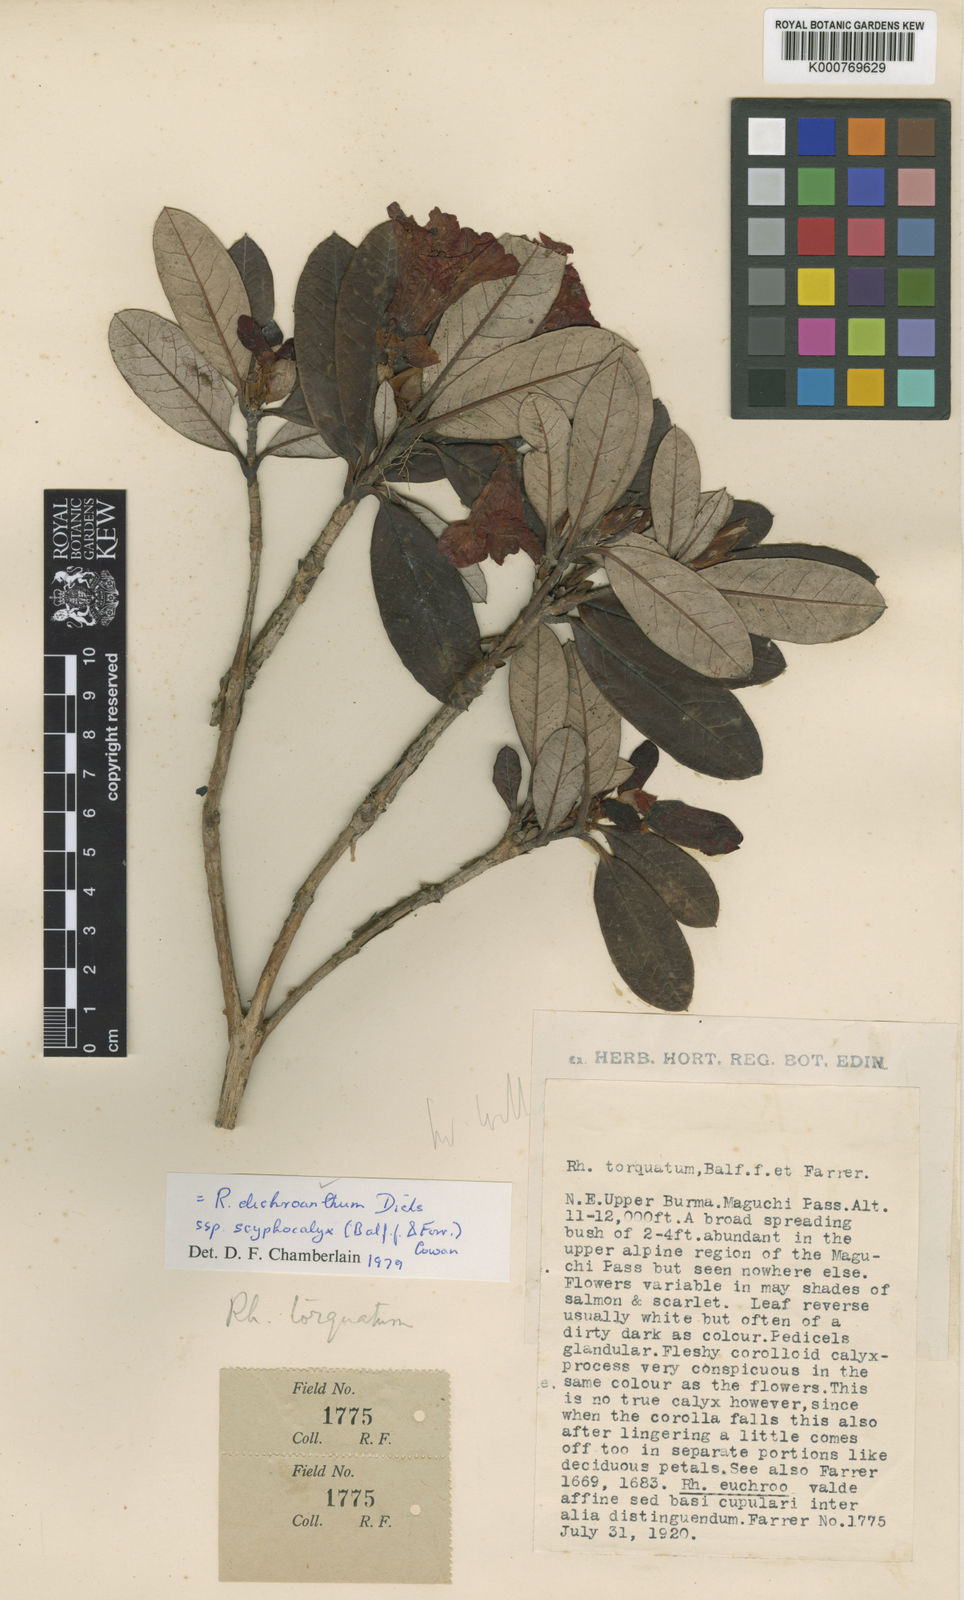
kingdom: Plantae
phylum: Tracheophyta
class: Magnoliopsida
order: Ericales
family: Ericaceae
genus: Rhododendron
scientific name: Rhododendron microgynum
